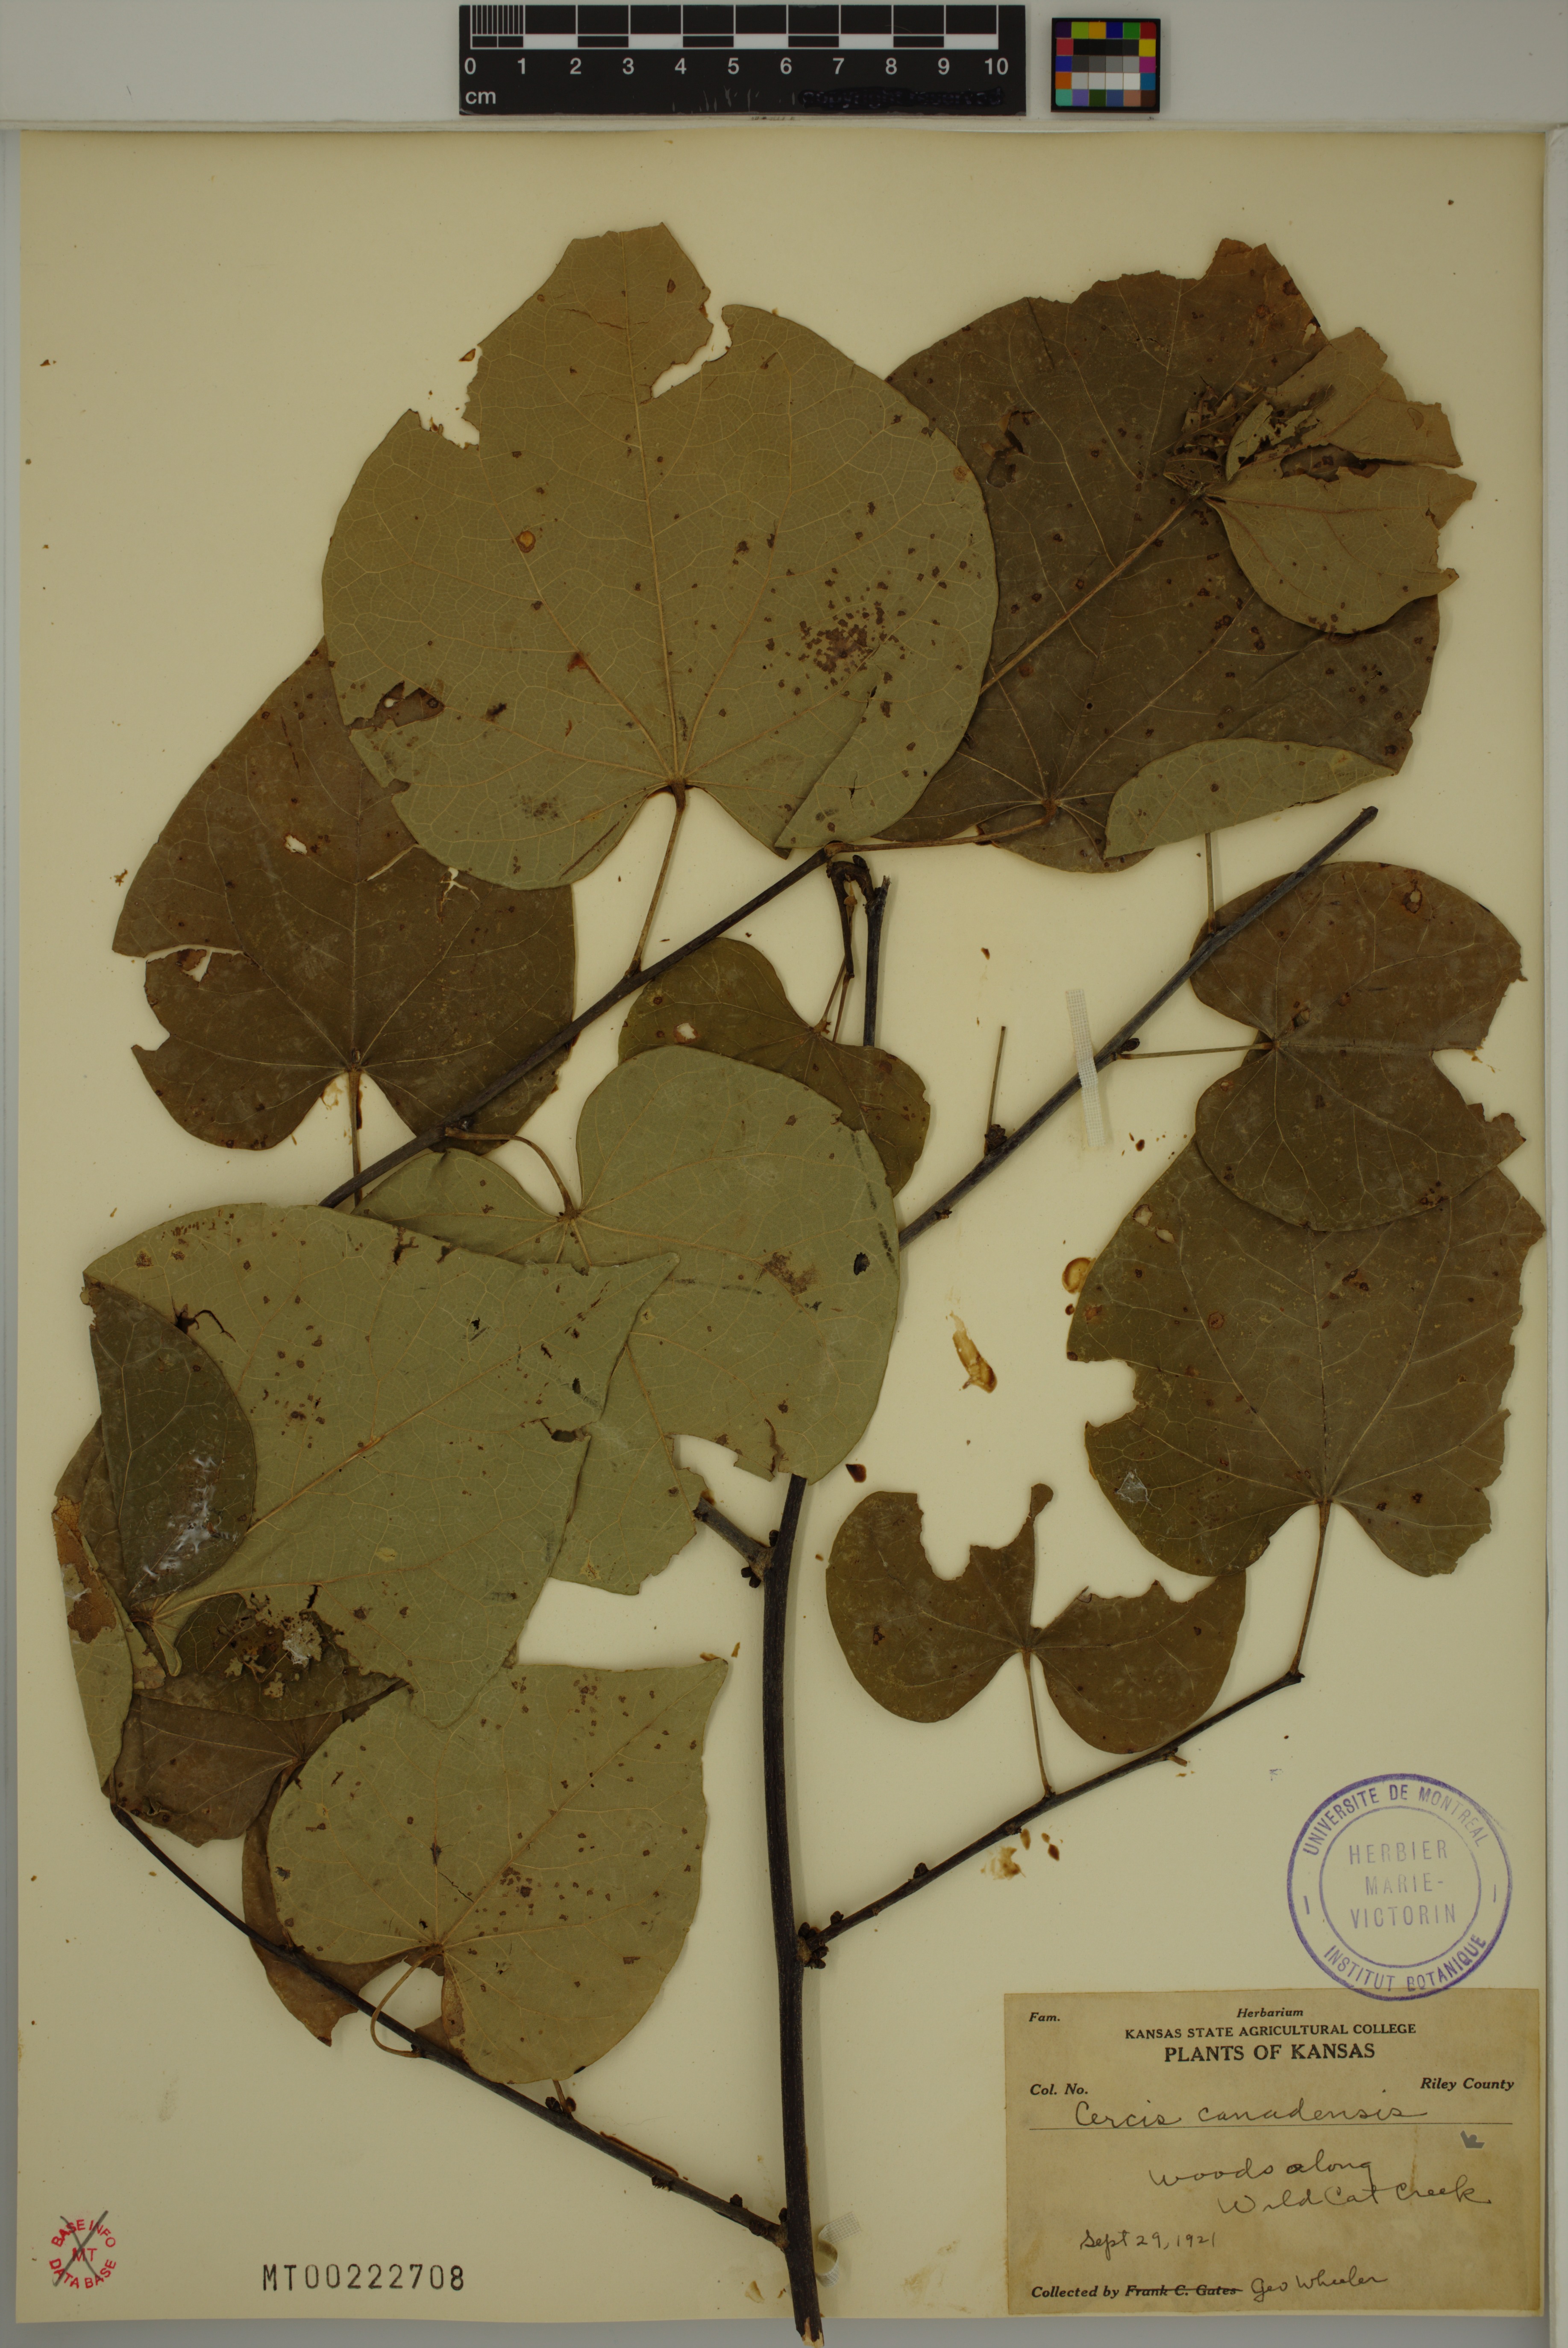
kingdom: Plantae
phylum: Tracheophyta
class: Magnoliopsida
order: Fabales
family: Fabaceae
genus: Cercis
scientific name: Cercis canadensis
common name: Eastern redbud
